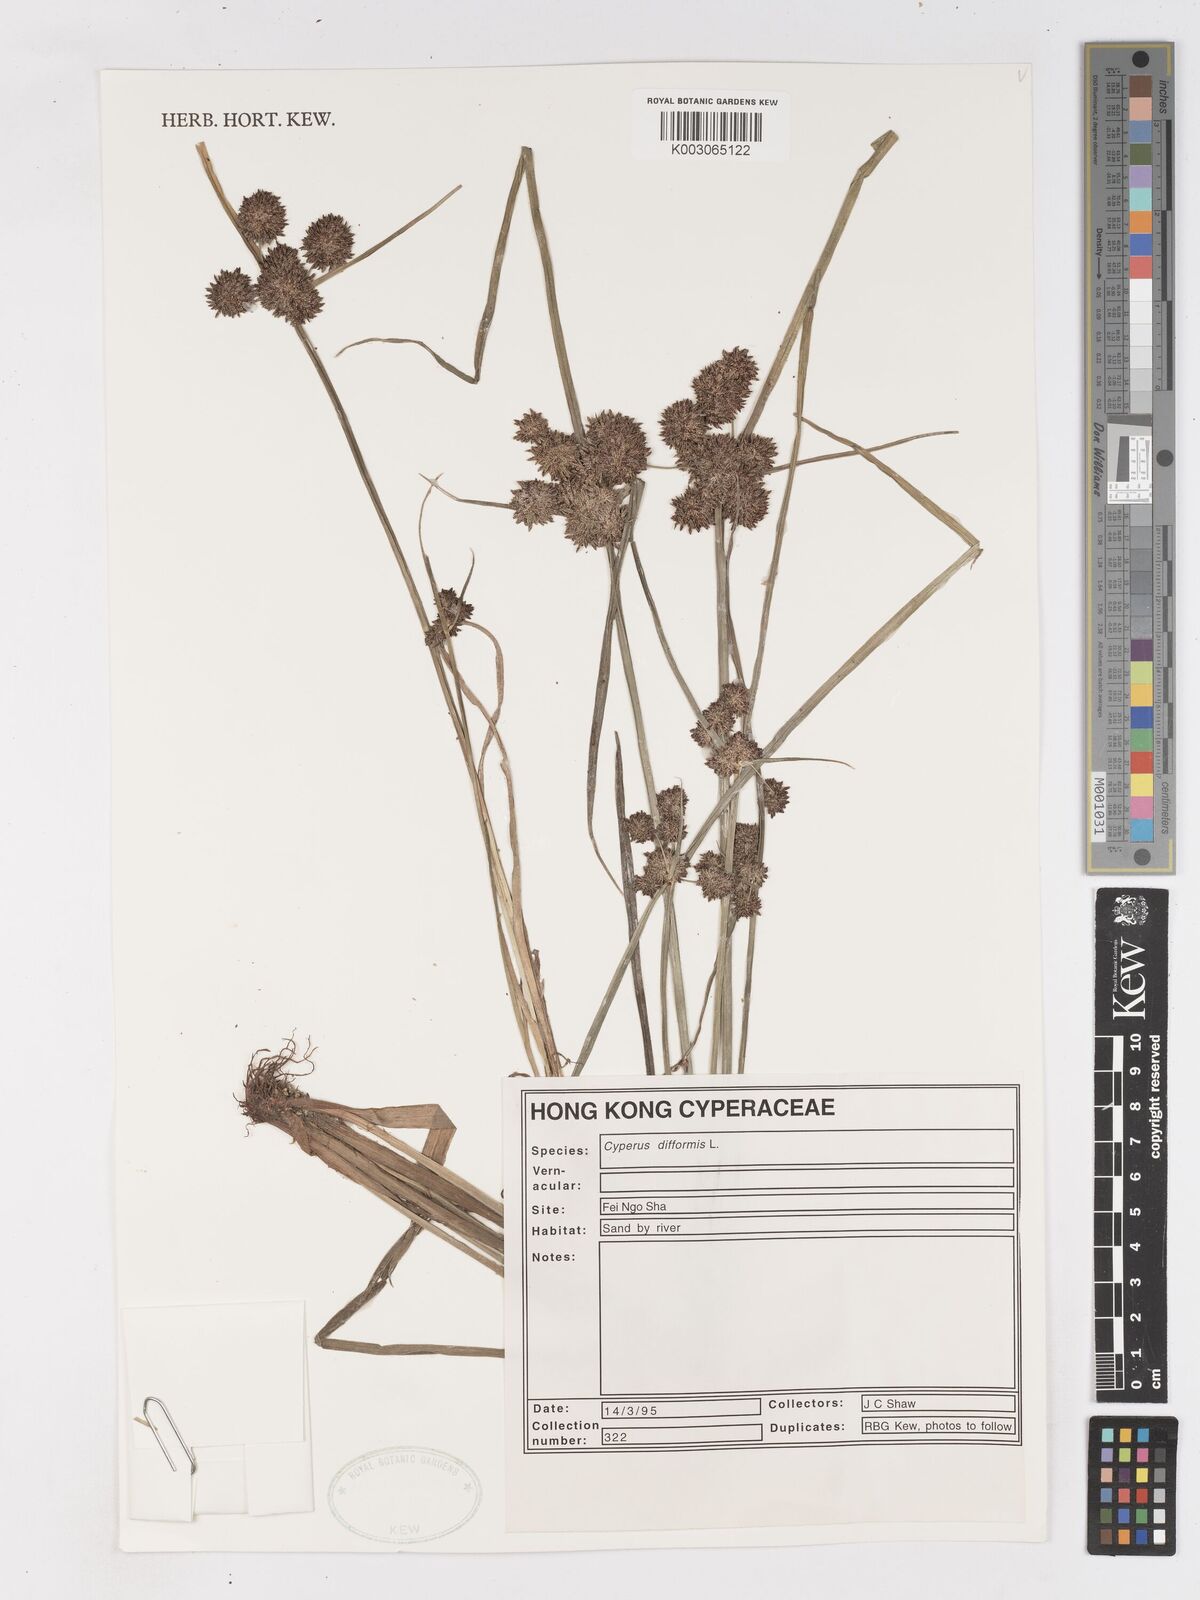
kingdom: Plantae
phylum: Tracheophyta
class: Liliopsida
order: Poales
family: Cyperaceae
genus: Cyperus
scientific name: Cyperus difformis
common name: Variable flatsedge
